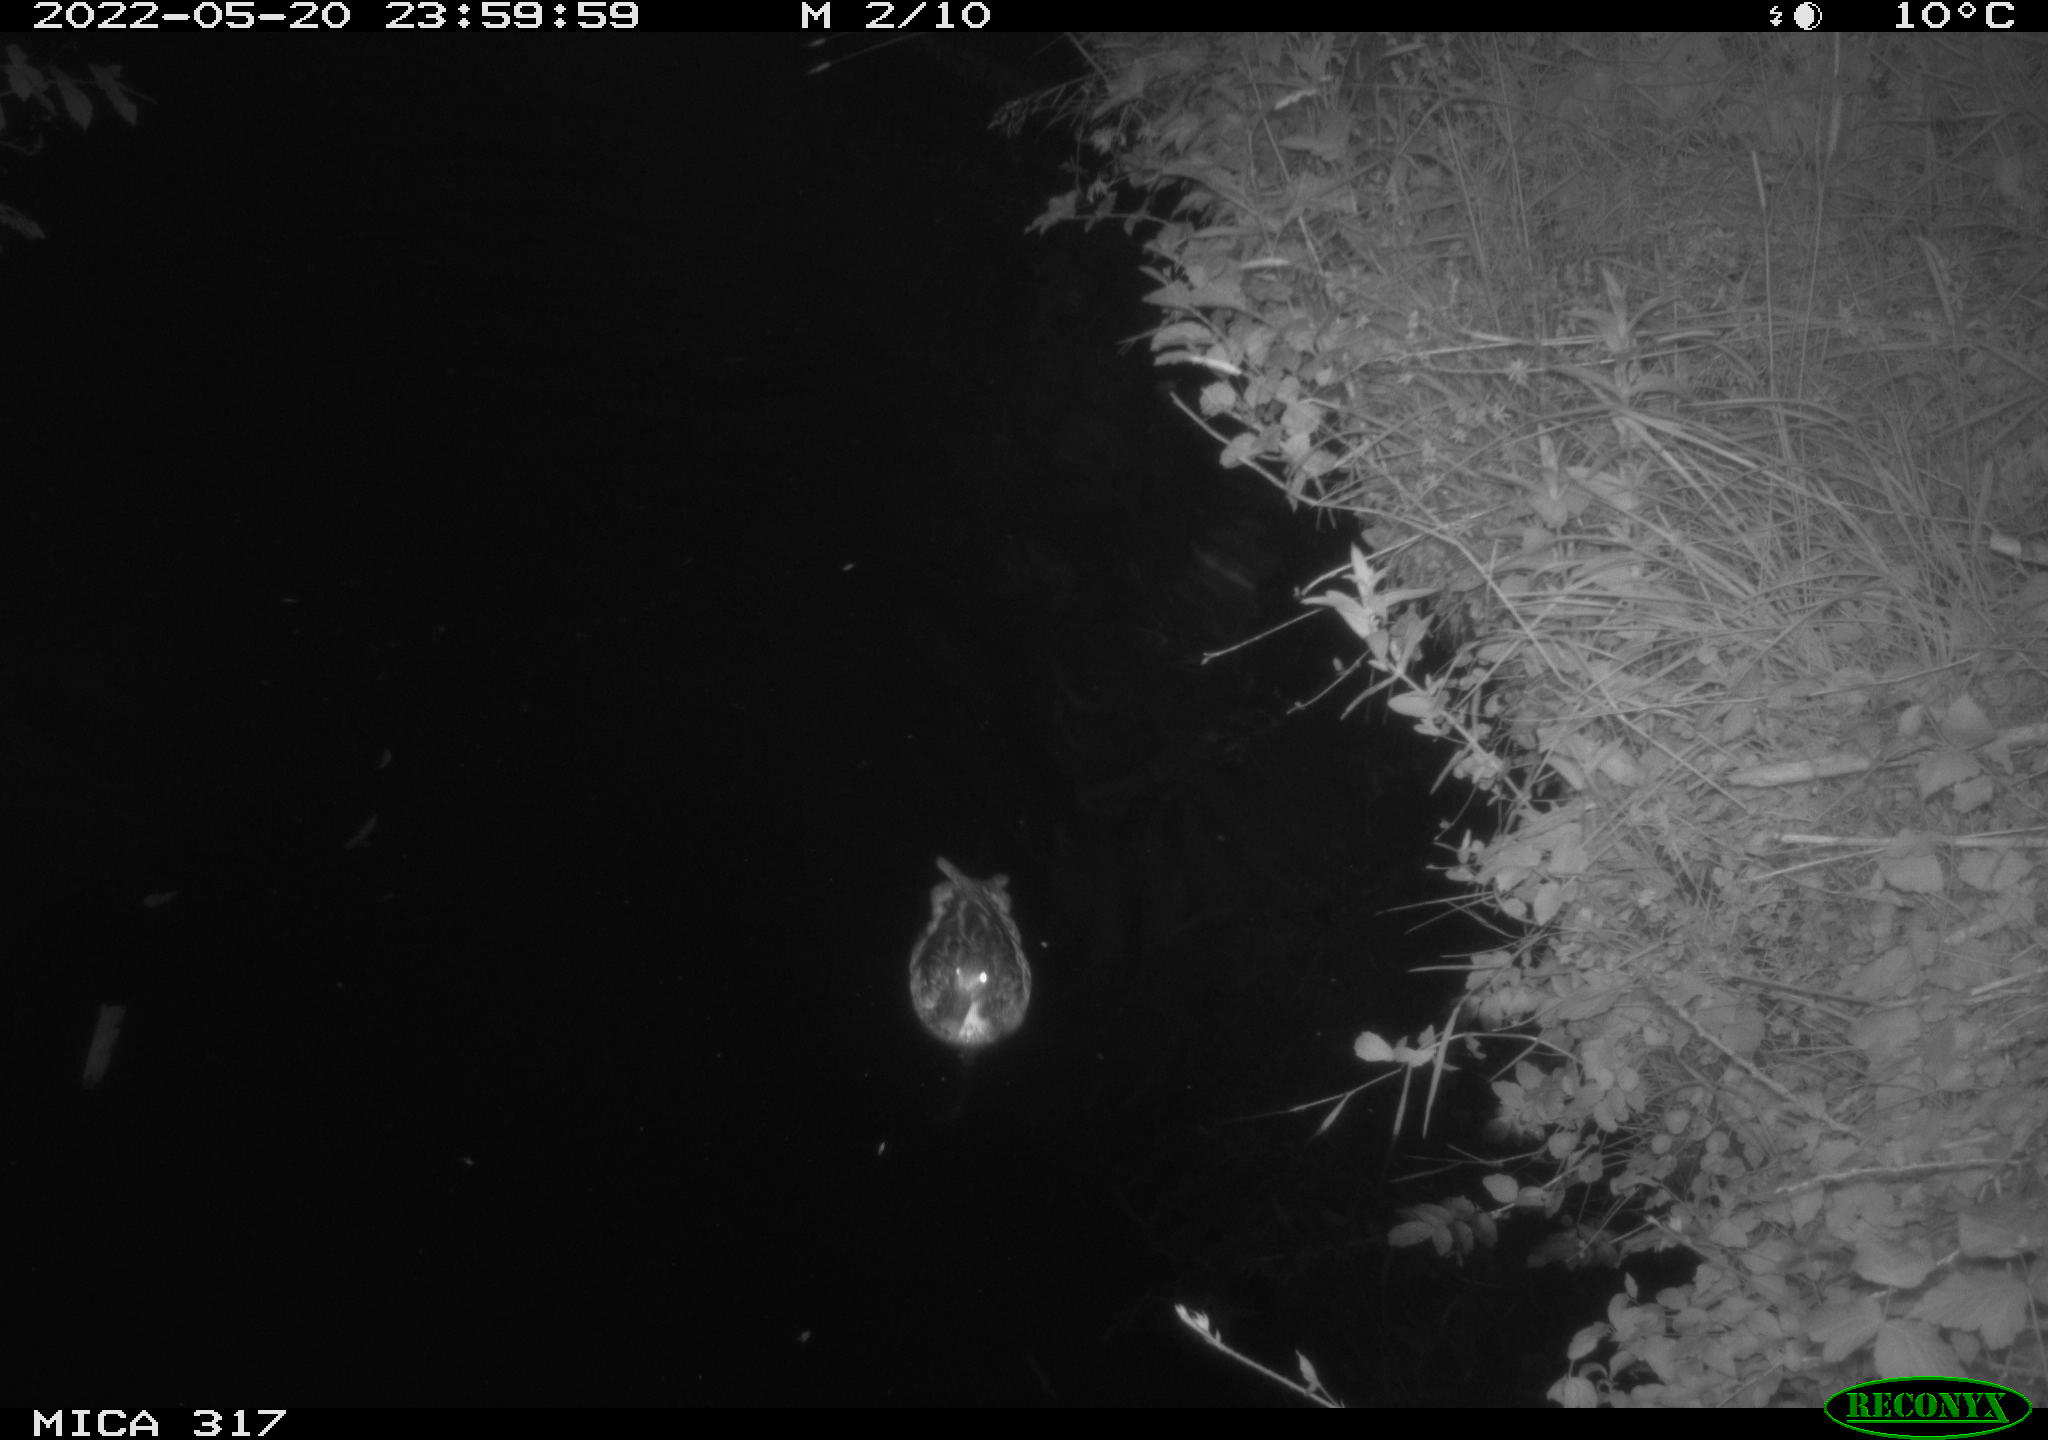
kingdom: Animalia
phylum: Chordata
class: Aves
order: Anseriformes
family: Anatidae
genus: Anas
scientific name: Anas
